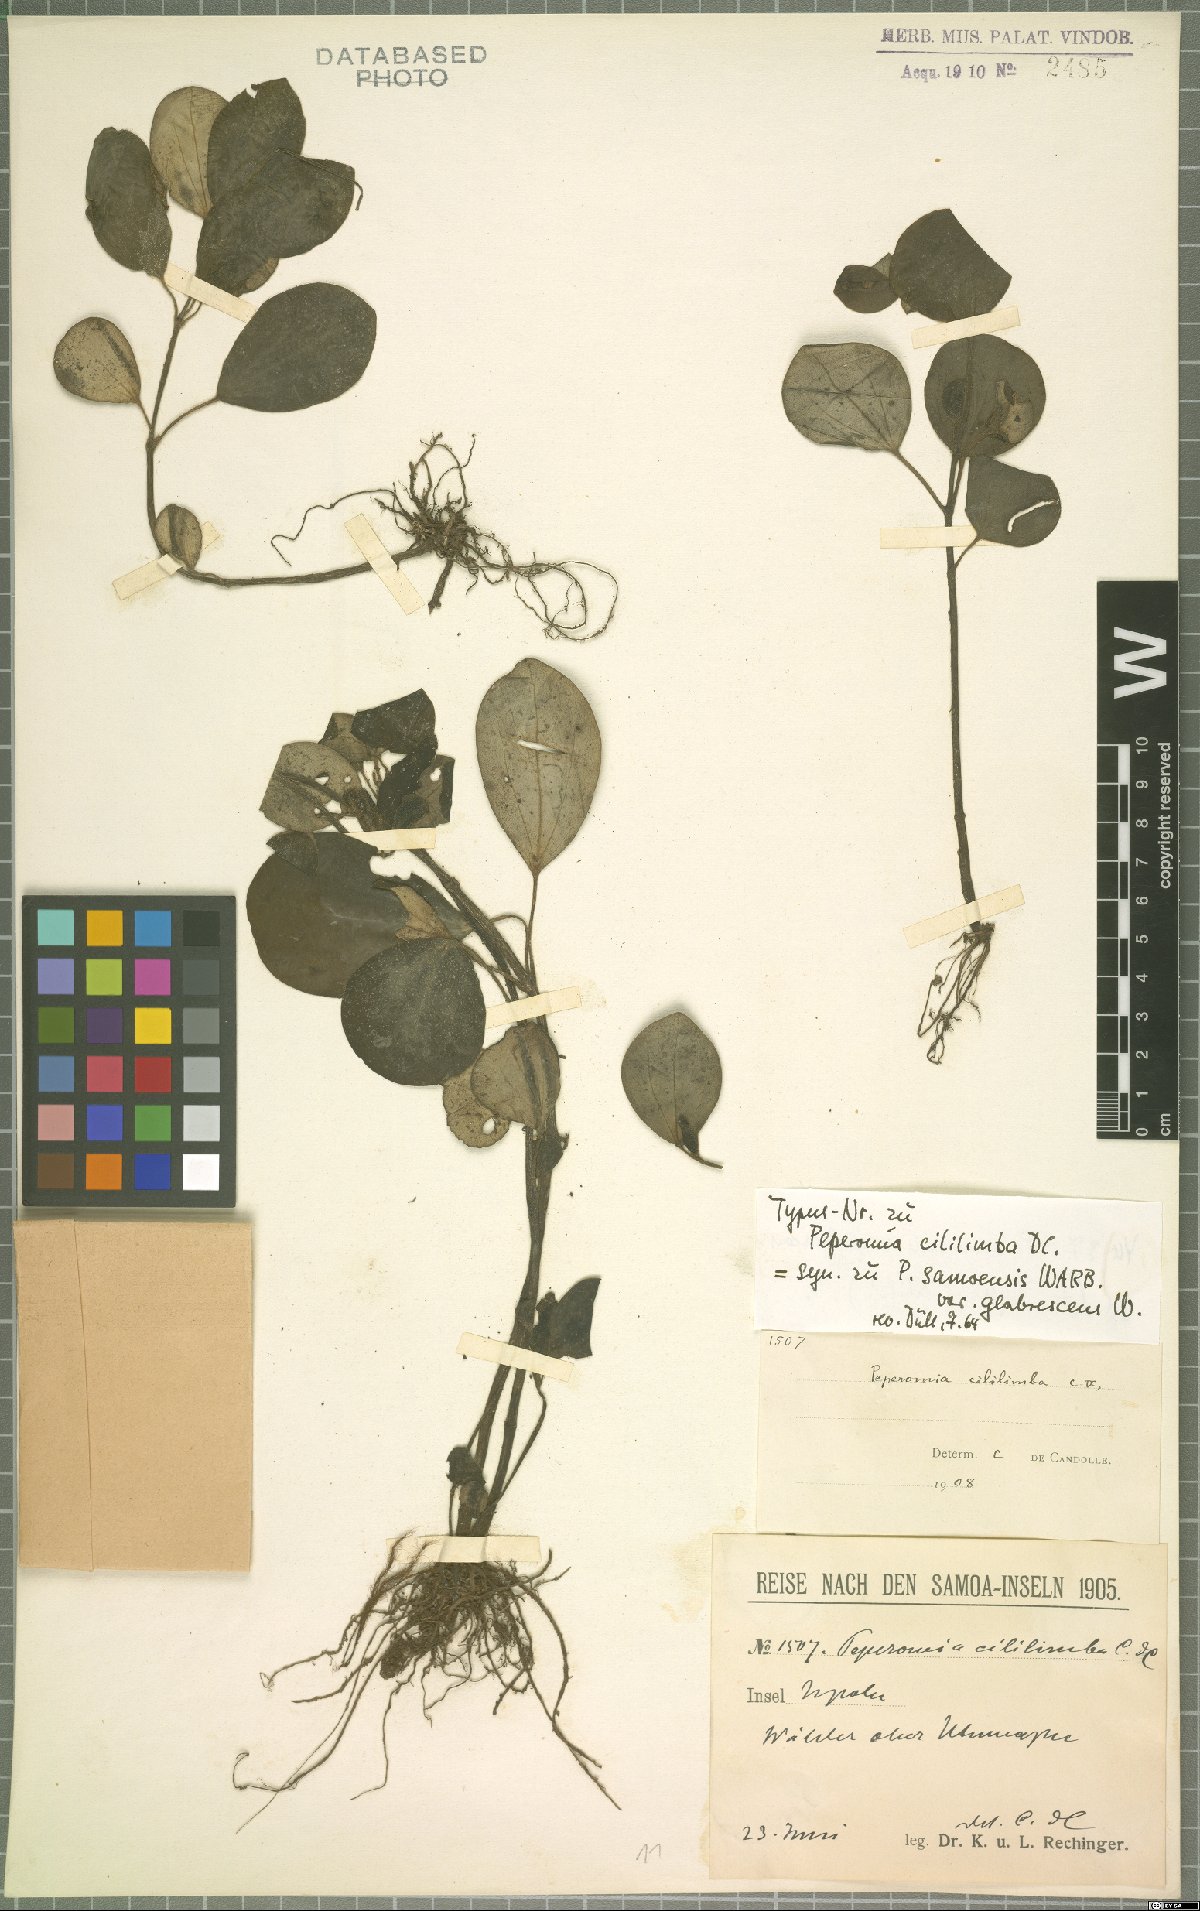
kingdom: Plantae
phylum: Tracheophyta
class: Magnoliopsida
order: Piperales
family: Piperaceae
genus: Peperomia
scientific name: Peperomia samoensis
